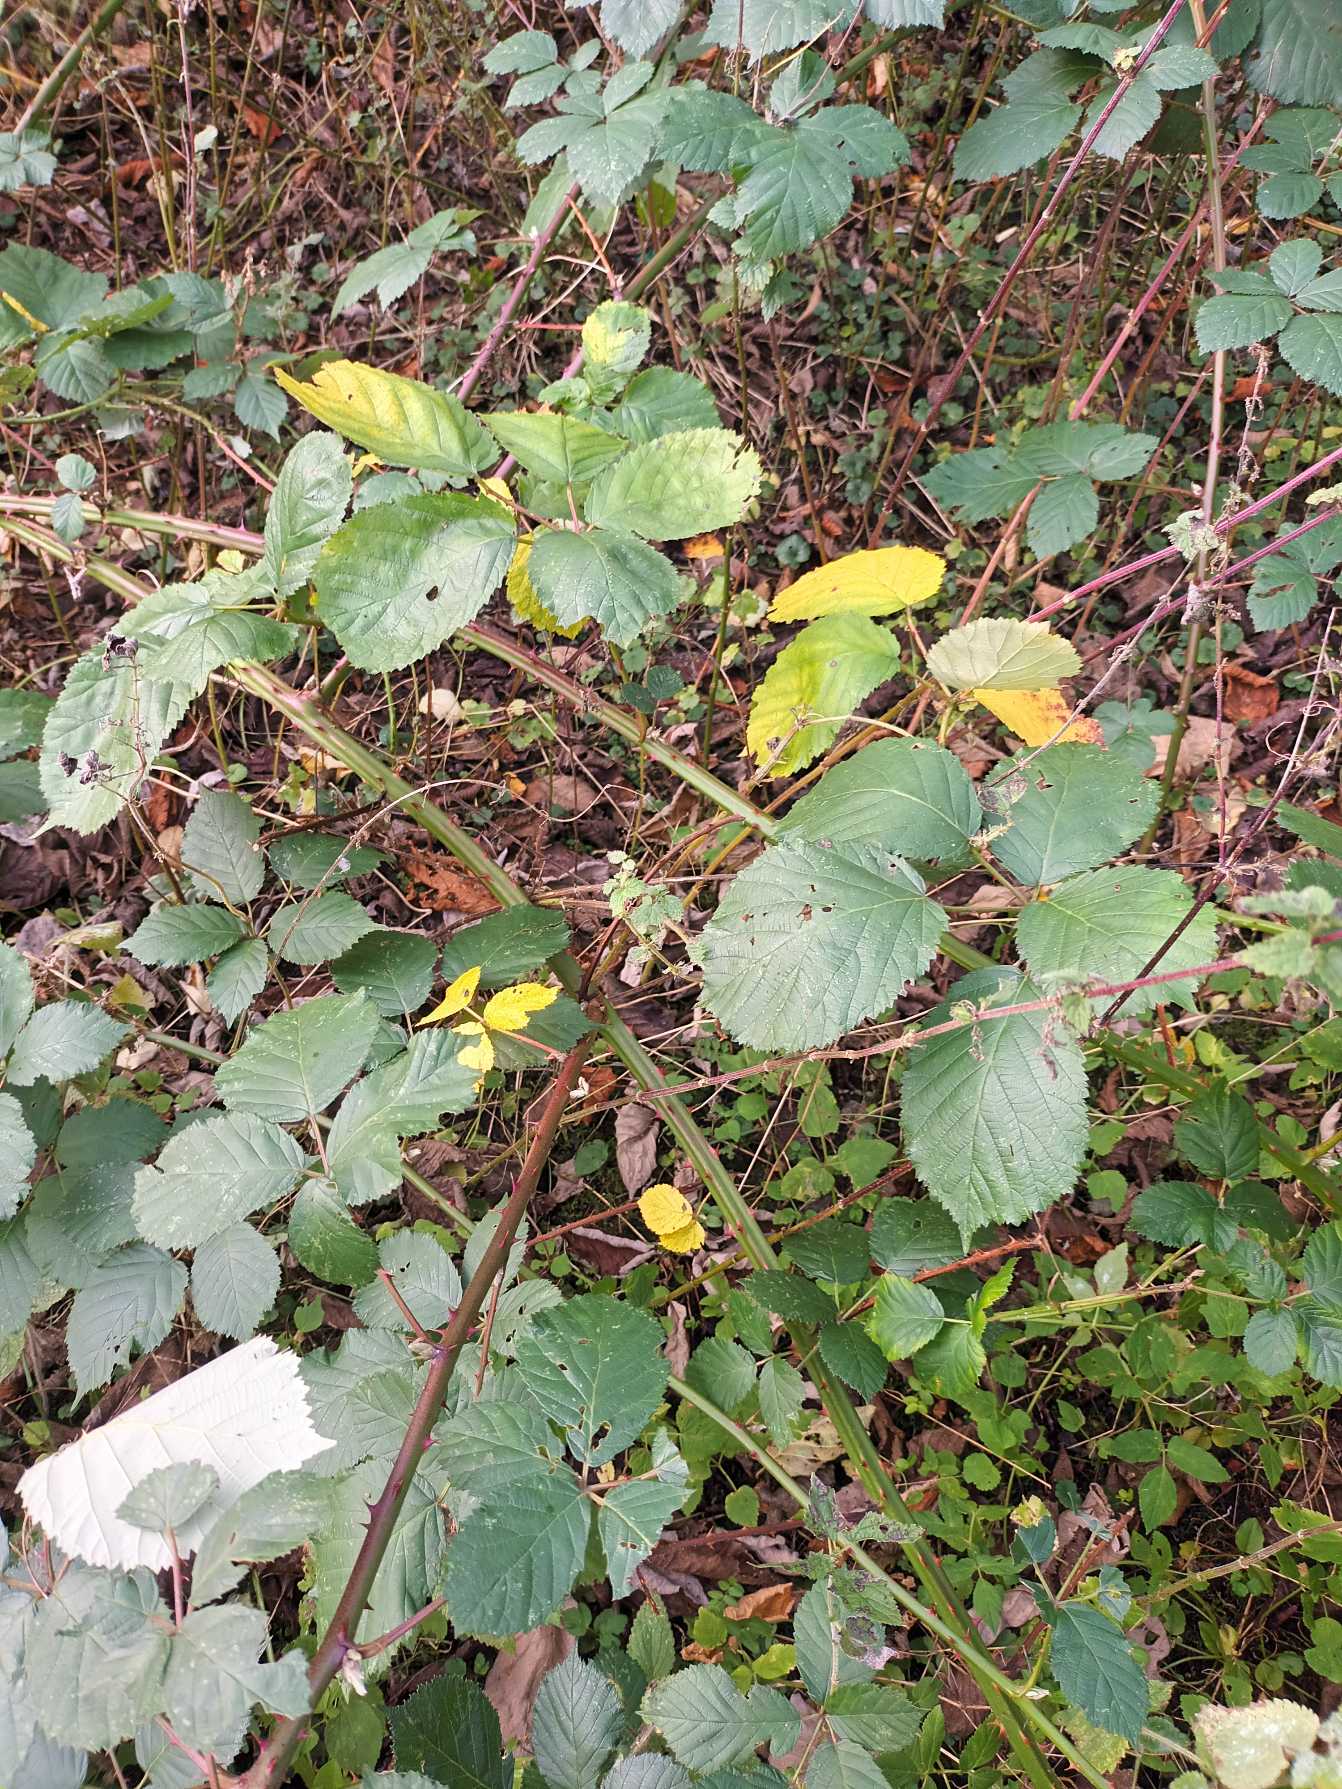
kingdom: Plantae
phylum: Tracheophyta
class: Magnoliopsida
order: Rosales
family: Rosaceae
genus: Rubus
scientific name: Rubus armeniacus
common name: Armensk brombær
